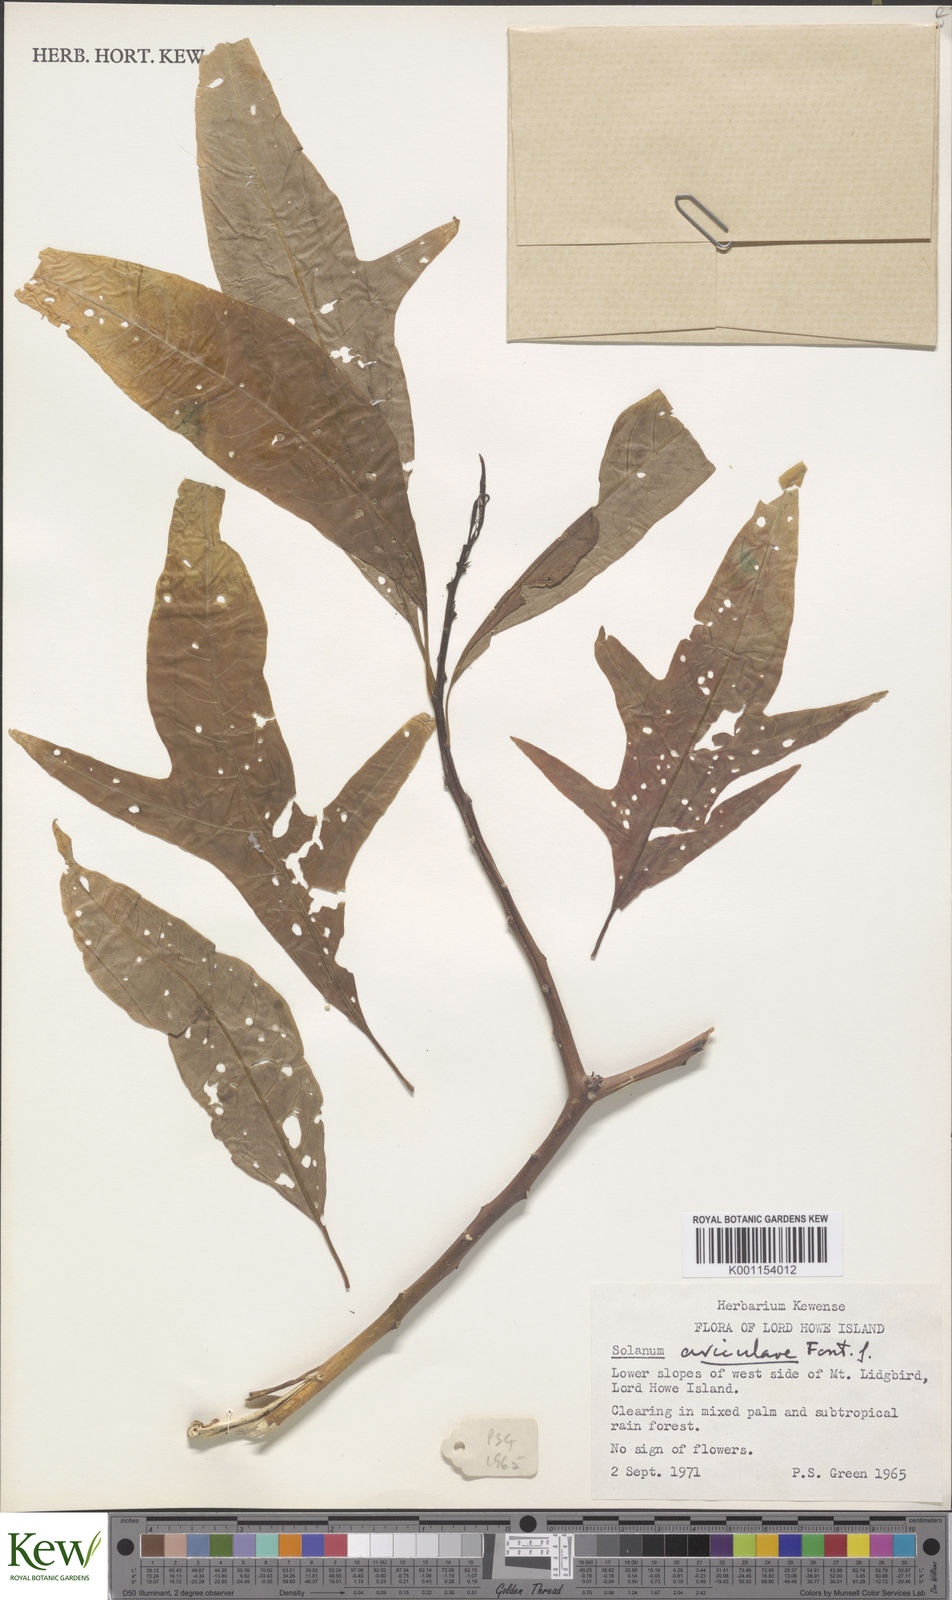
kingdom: Plantae
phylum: Tracheophyta
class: Magnoliopsida
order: Solanales
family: Solanaceae
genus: Solanum
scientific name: Solanum aviculare
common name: New zealand nightshade
